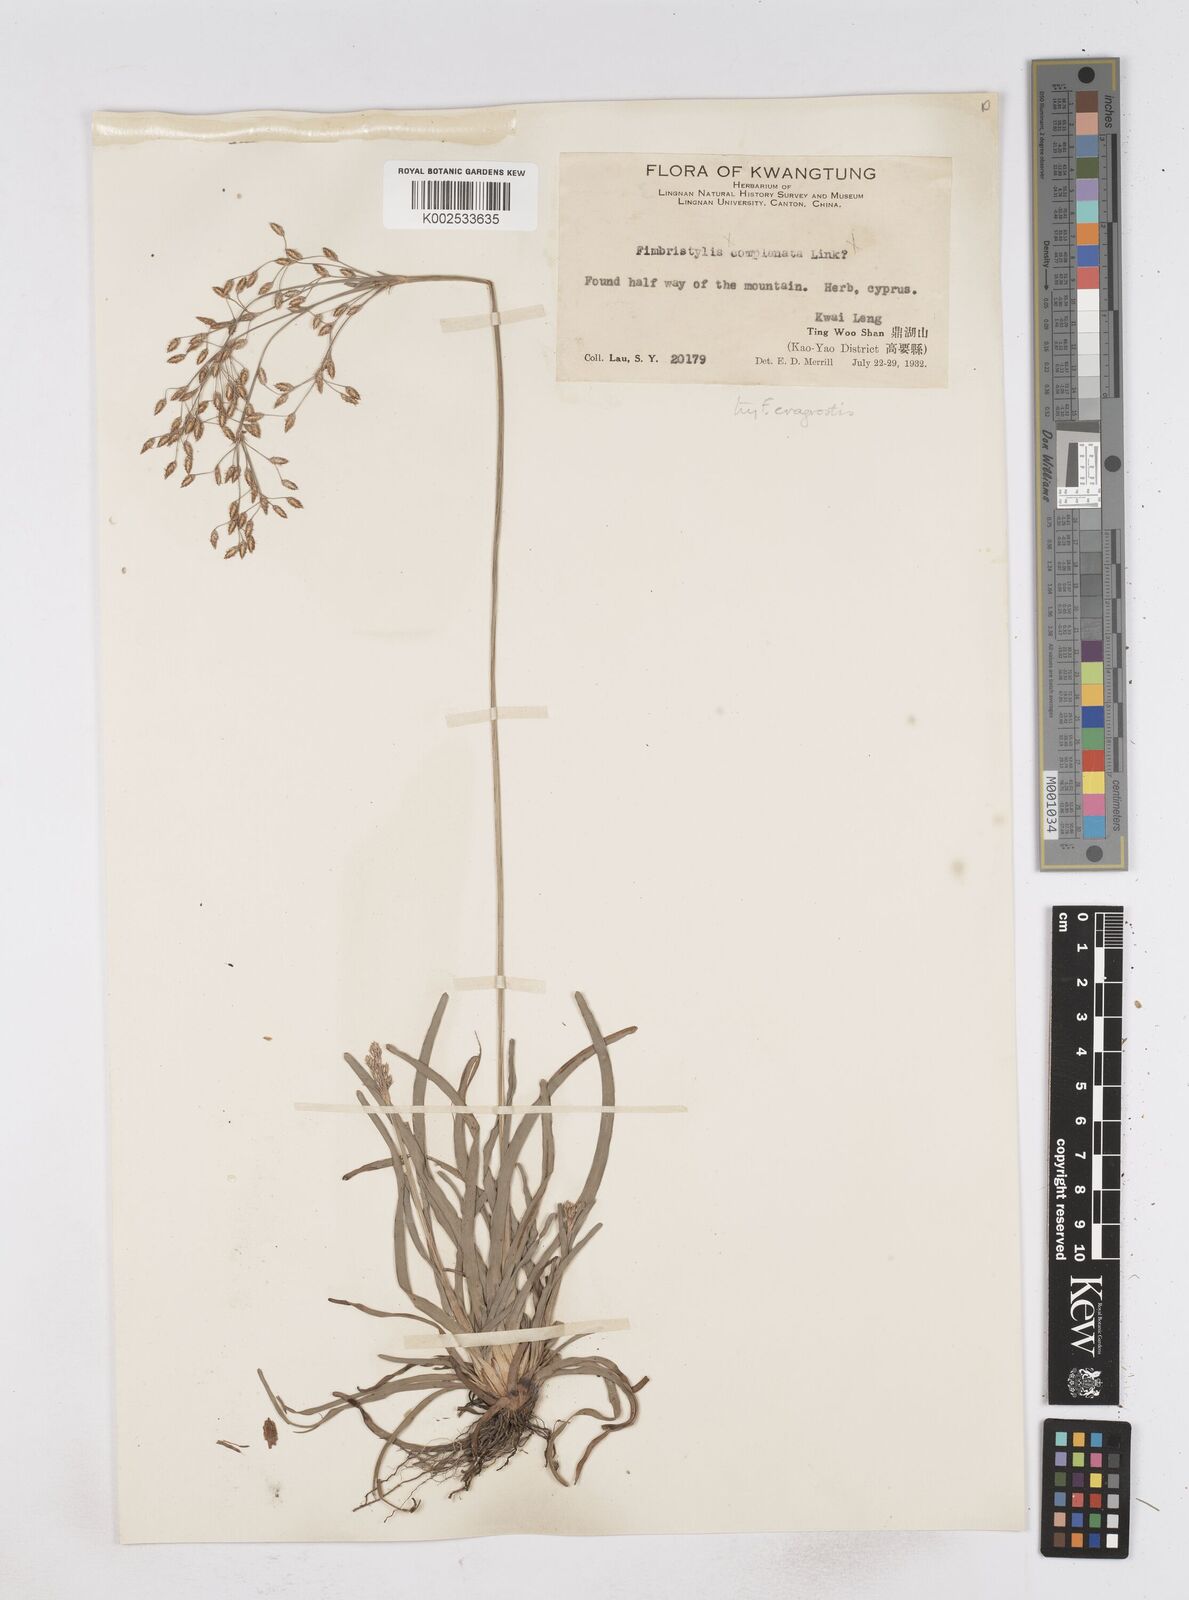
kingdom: Plantae
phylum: Tracheophyta
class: Liliopsida
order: Poales
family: Cyperaceae
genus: Fimbristylis
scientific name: Fimbristylis eragrostis
